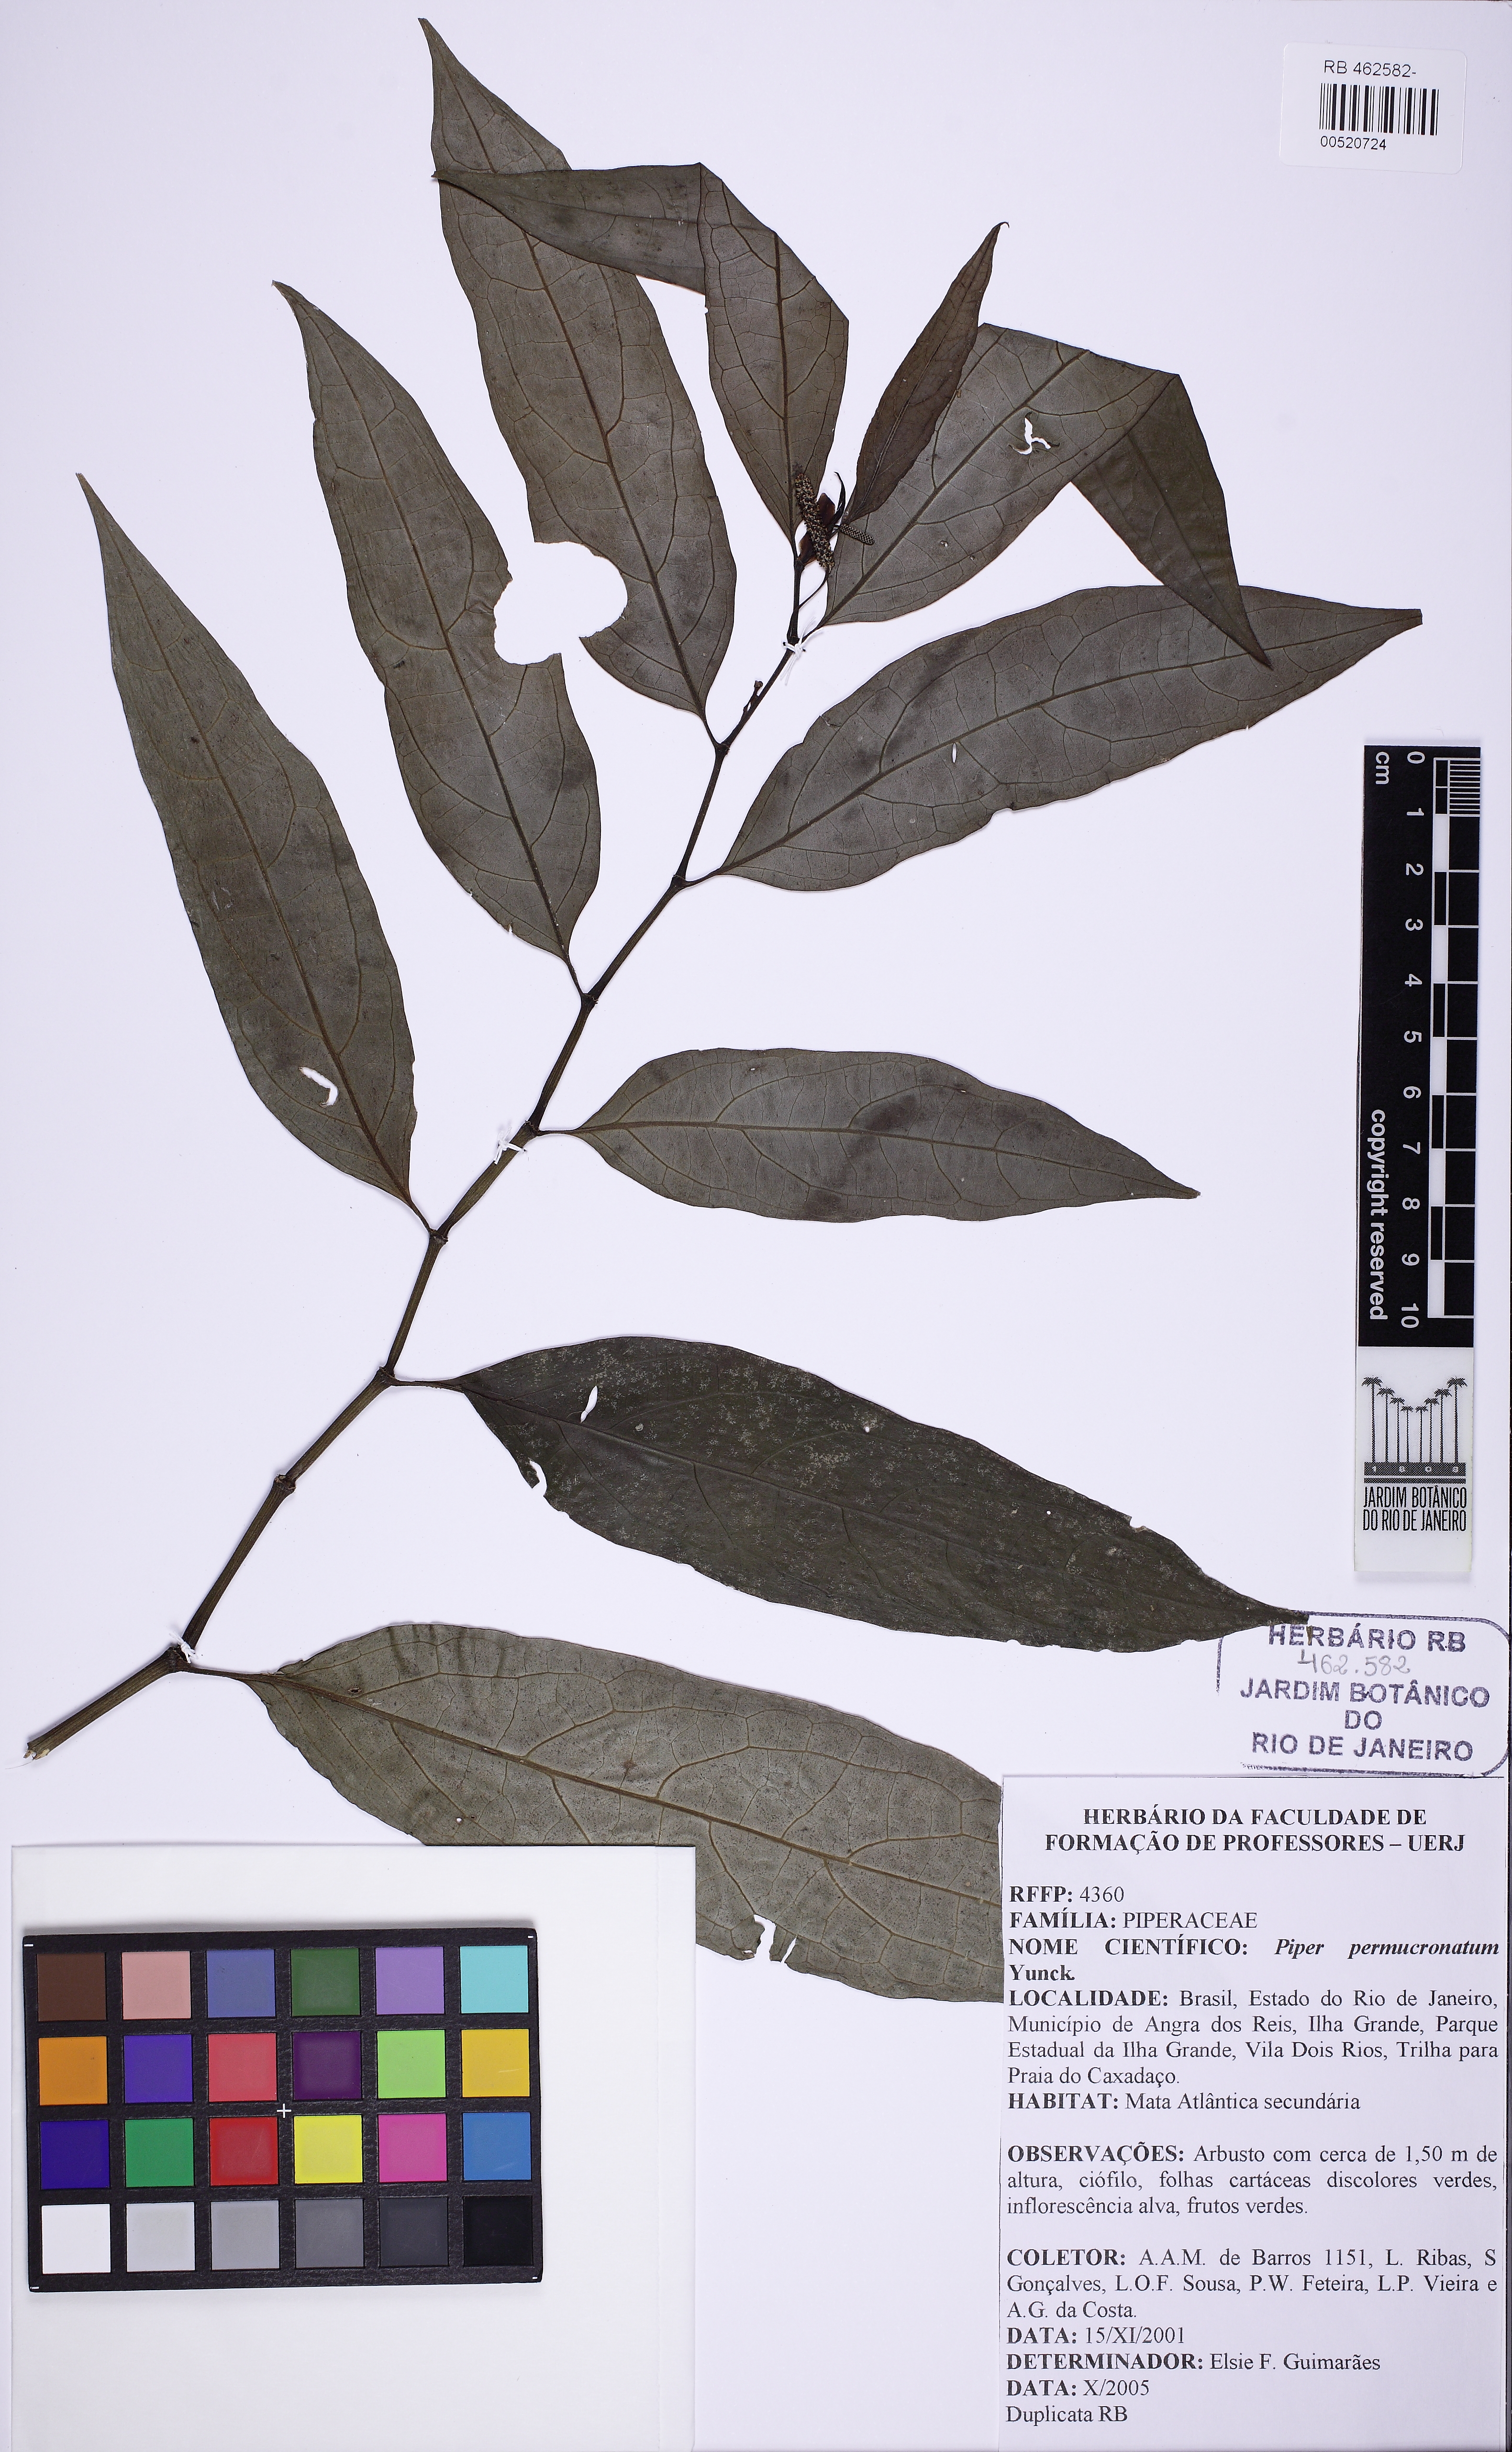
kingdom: Plantae
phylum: Tracheophyta
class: Magnoliopsida
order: Piperales
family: Piperaceae
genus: Piper
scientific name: Piper permucronatum
